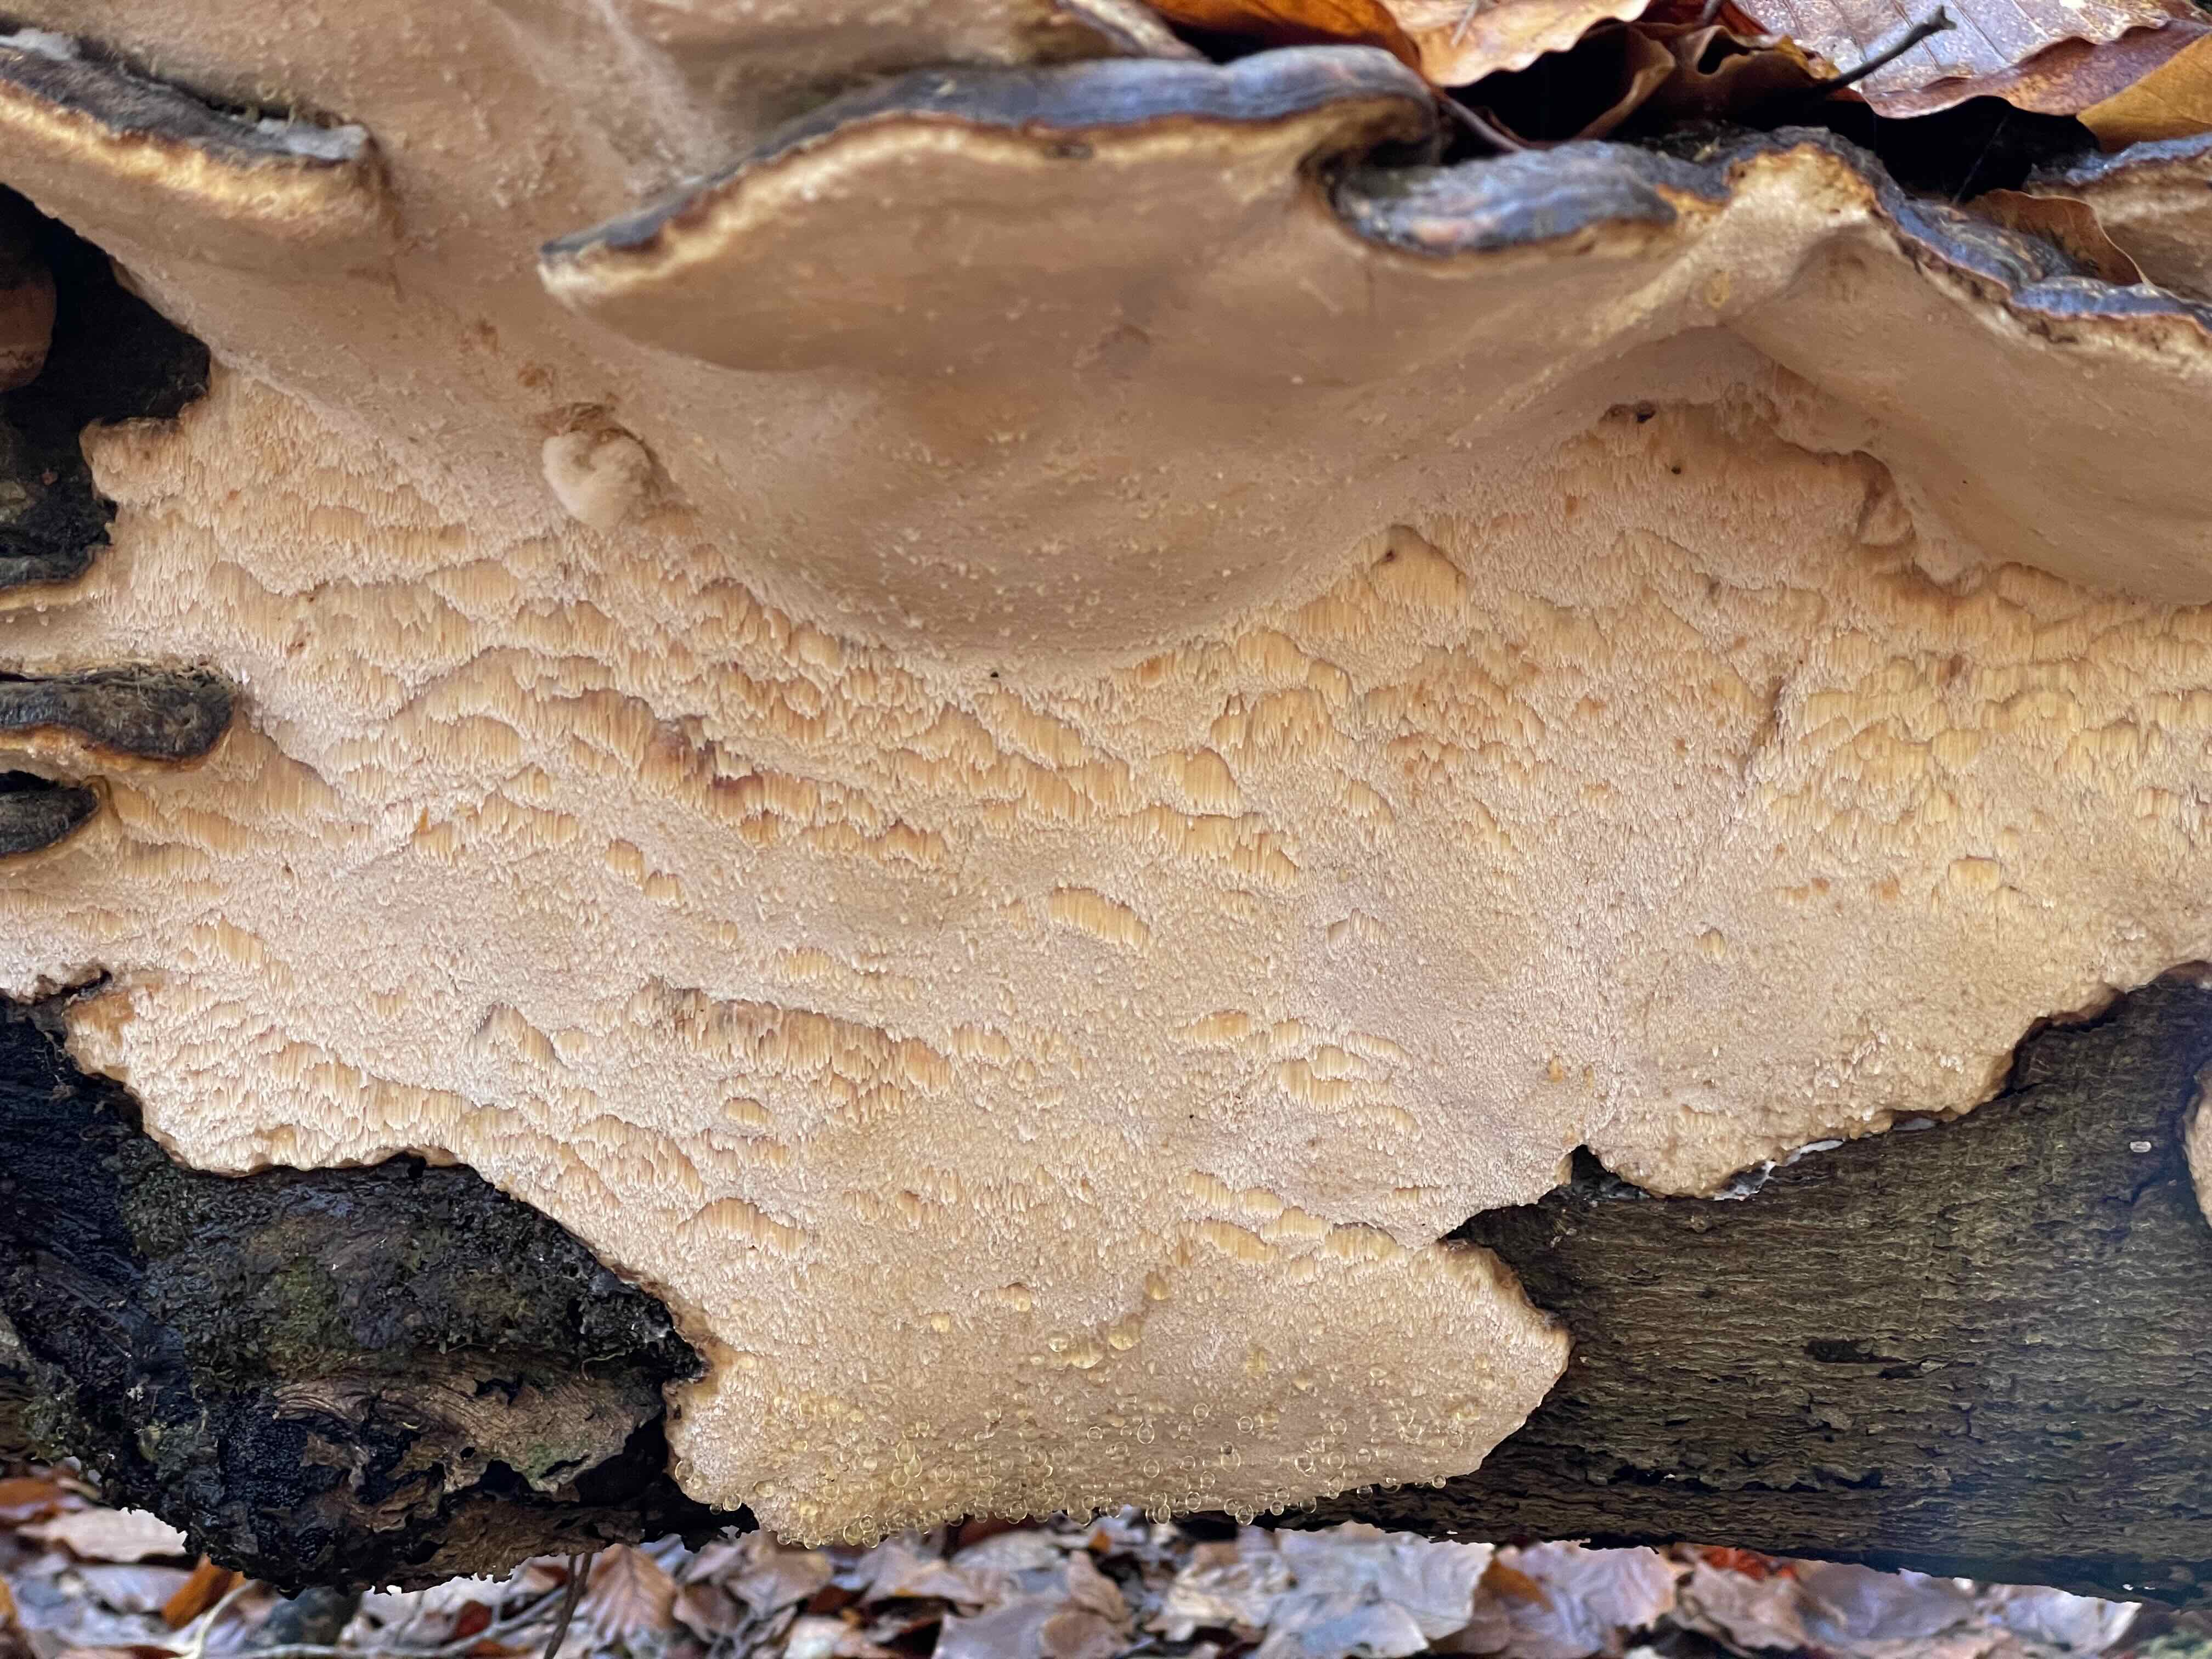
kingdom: Fungi
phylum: Basidiomycota
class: Agaricomycetes
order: Polyporales
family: Ischnodermataceae
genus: Ischnoderma
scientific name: Ischnoderma resinosum
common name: løv-tjæreporesvamp
